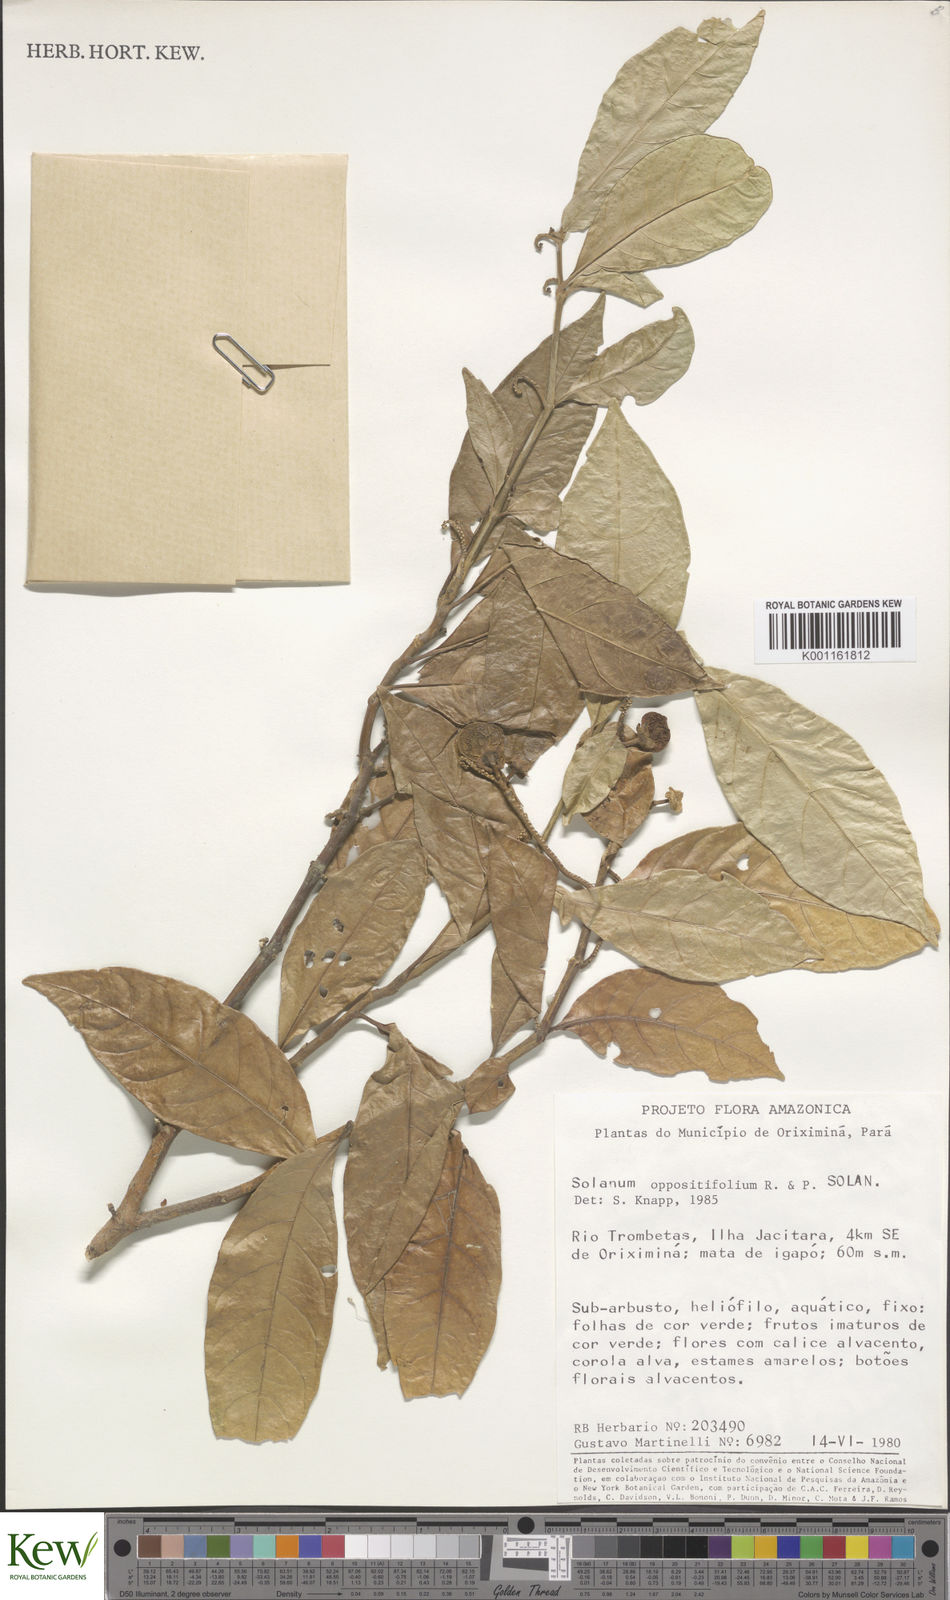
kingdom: Plantae
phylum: Tracheophyta
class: Magnoliopsida
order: Solanales
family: Solanaceae
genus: Solanum
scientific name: Solanum oppositifolium
